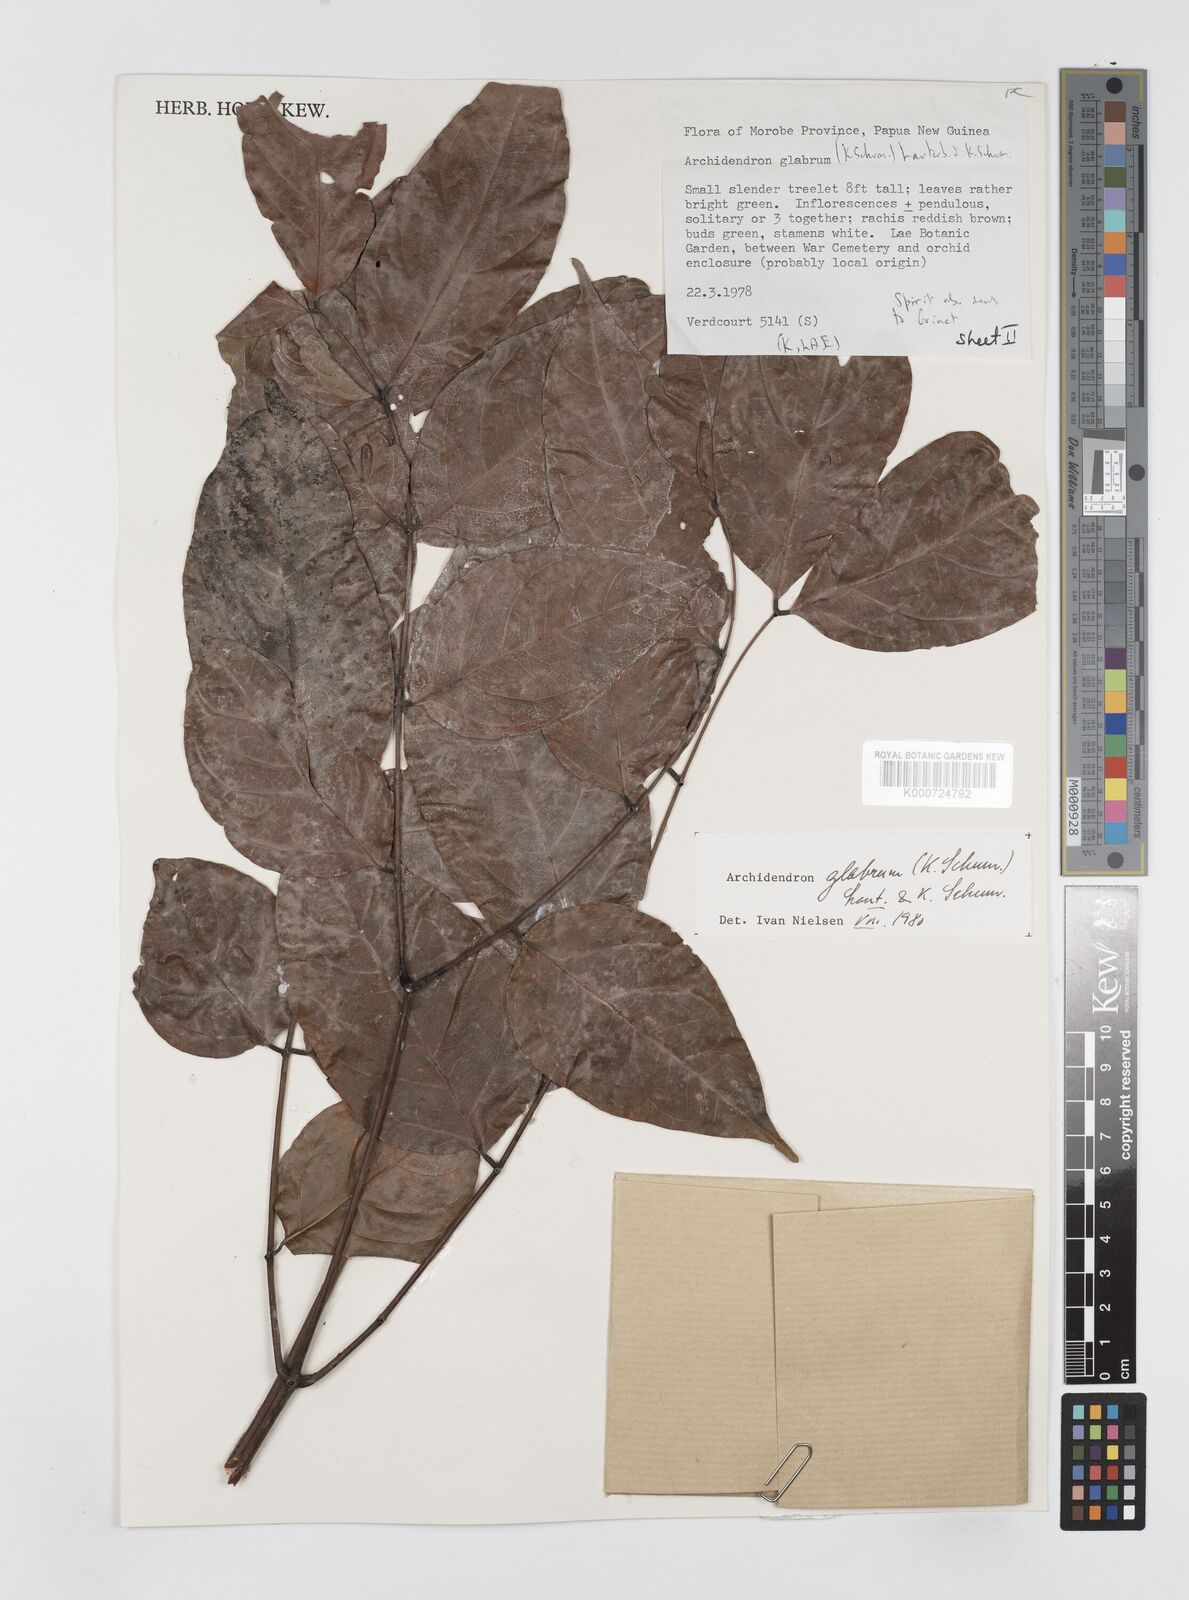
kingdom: Plantae
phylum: Tracheophyta
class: Magnoliopsida
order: Fabales
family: Fabaceae
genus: Archidendron
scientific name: Archidendron glabrum
